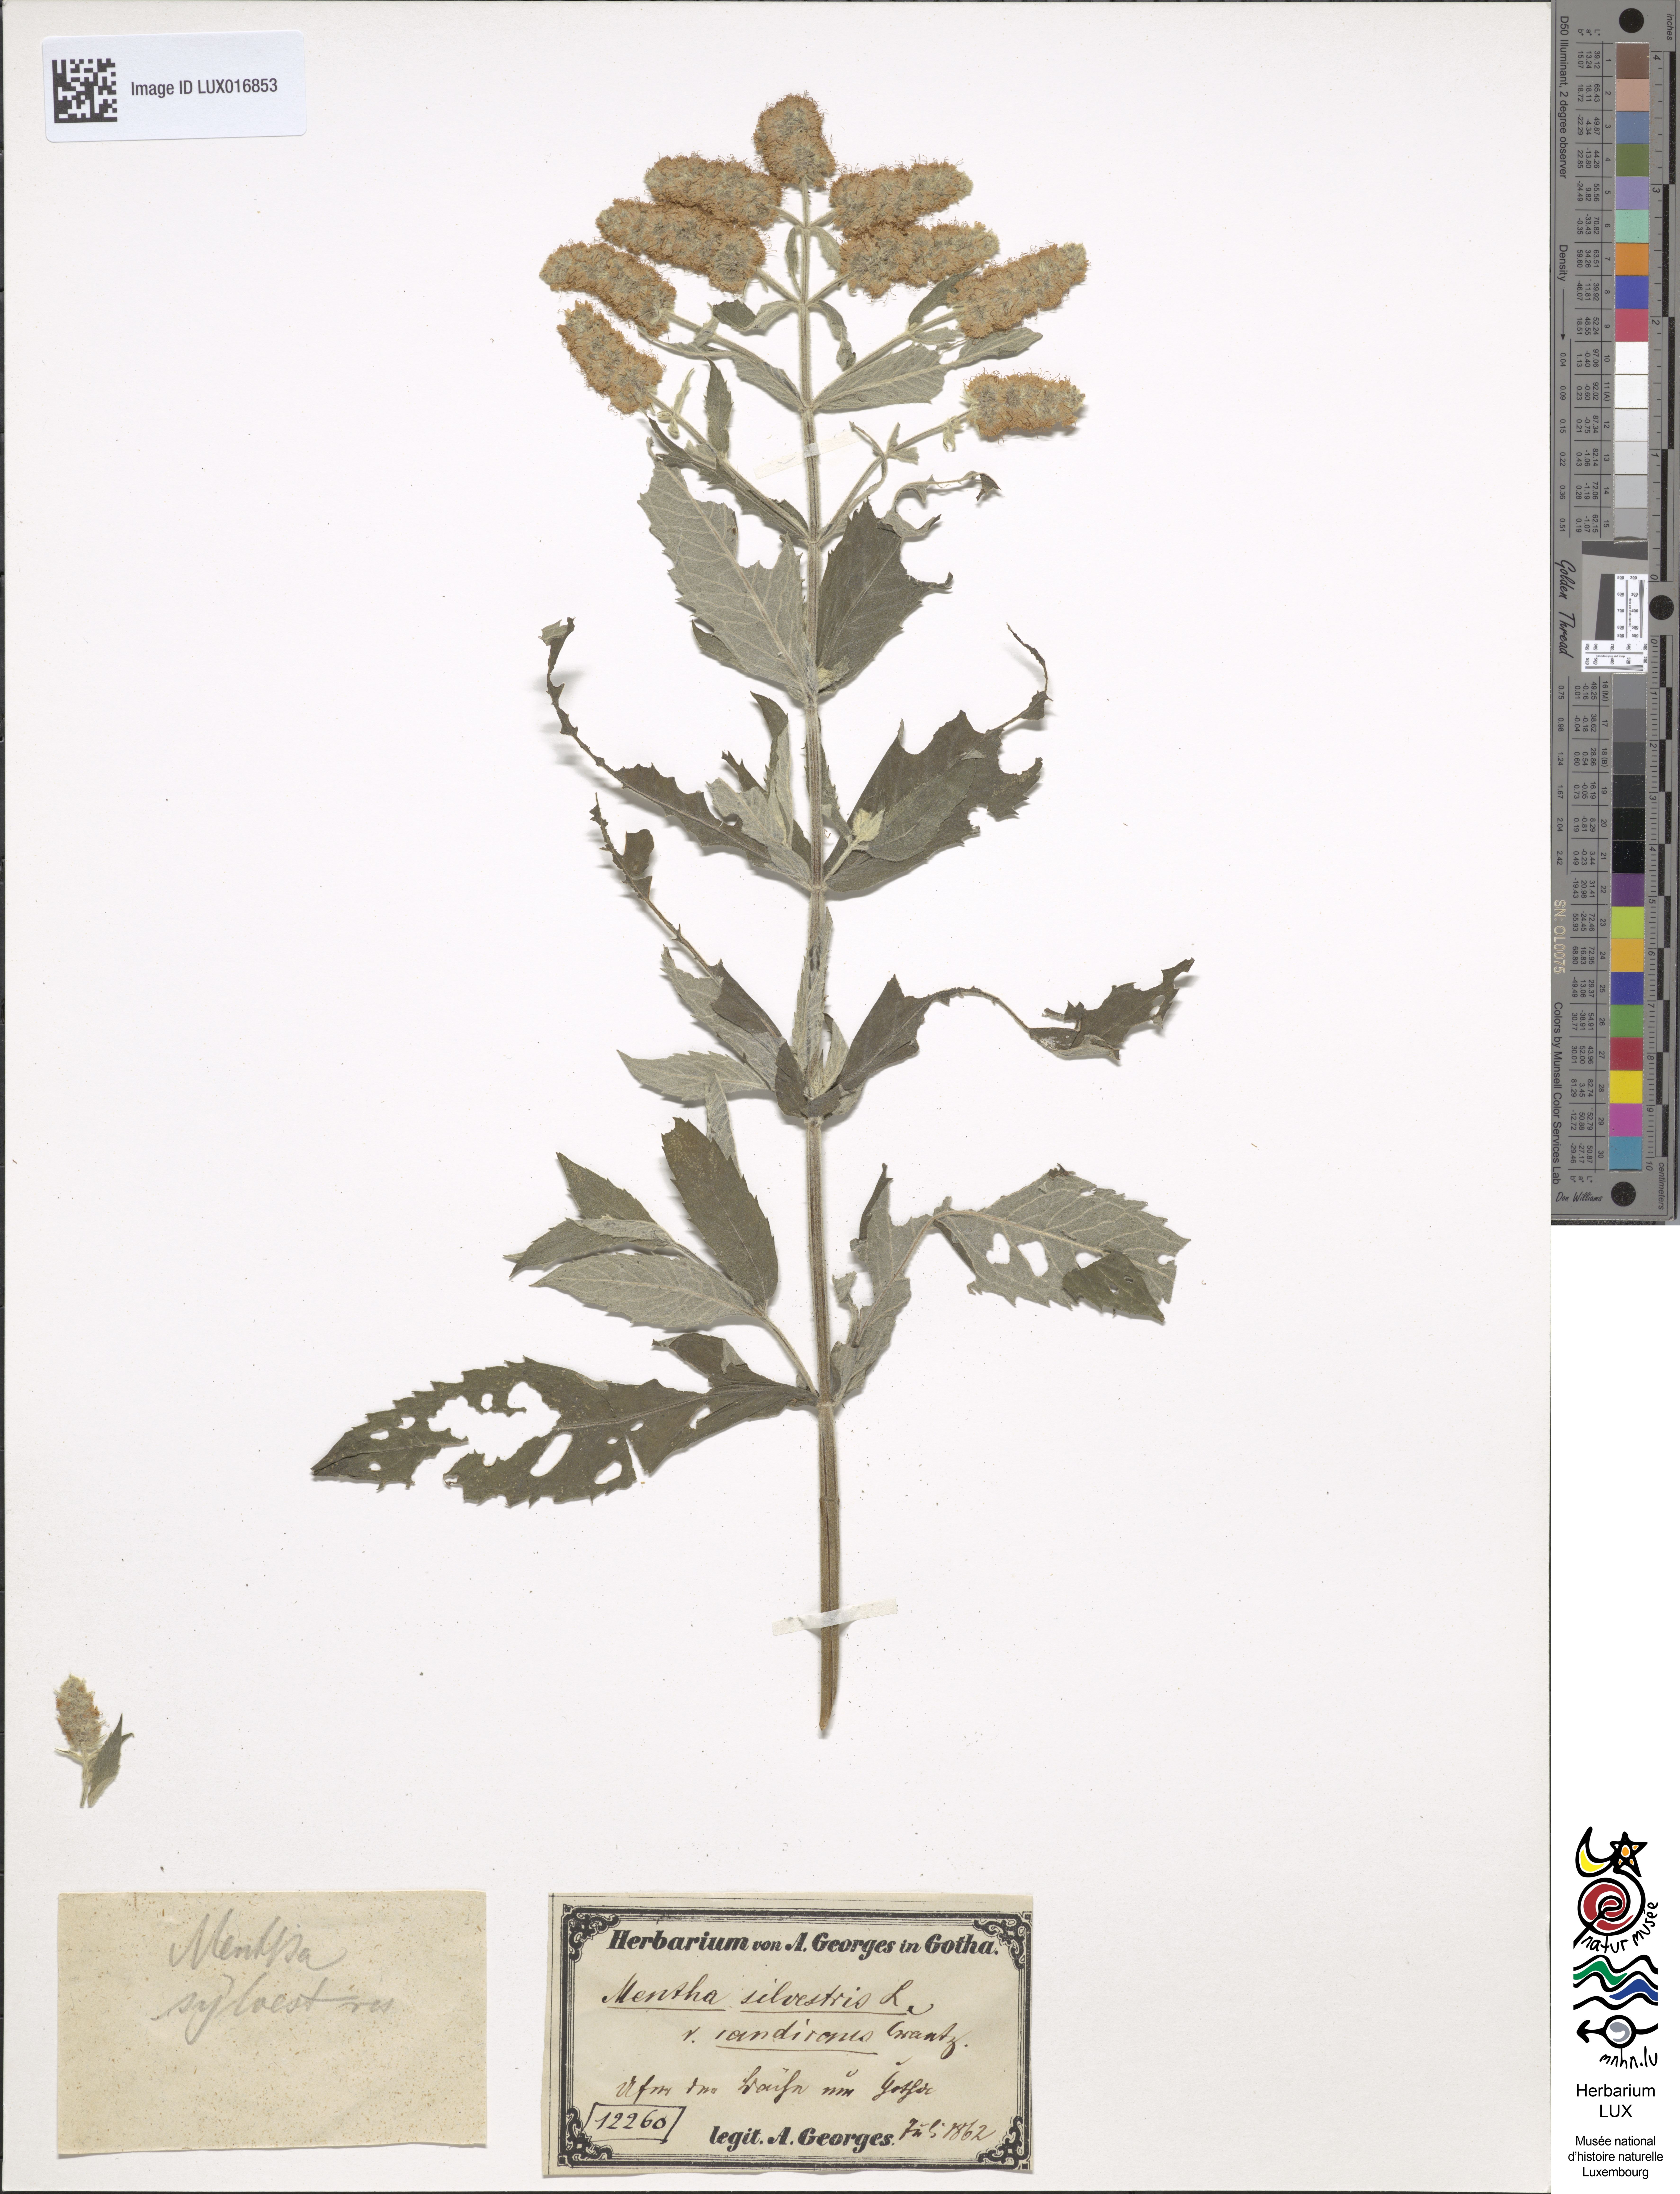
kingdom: Plantae
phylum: Tracheophyta
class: Magnoliopsida
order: Lamiales
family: Lamiaceae
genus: Mentha
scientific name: Mentha longifolia
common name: Horse mint
